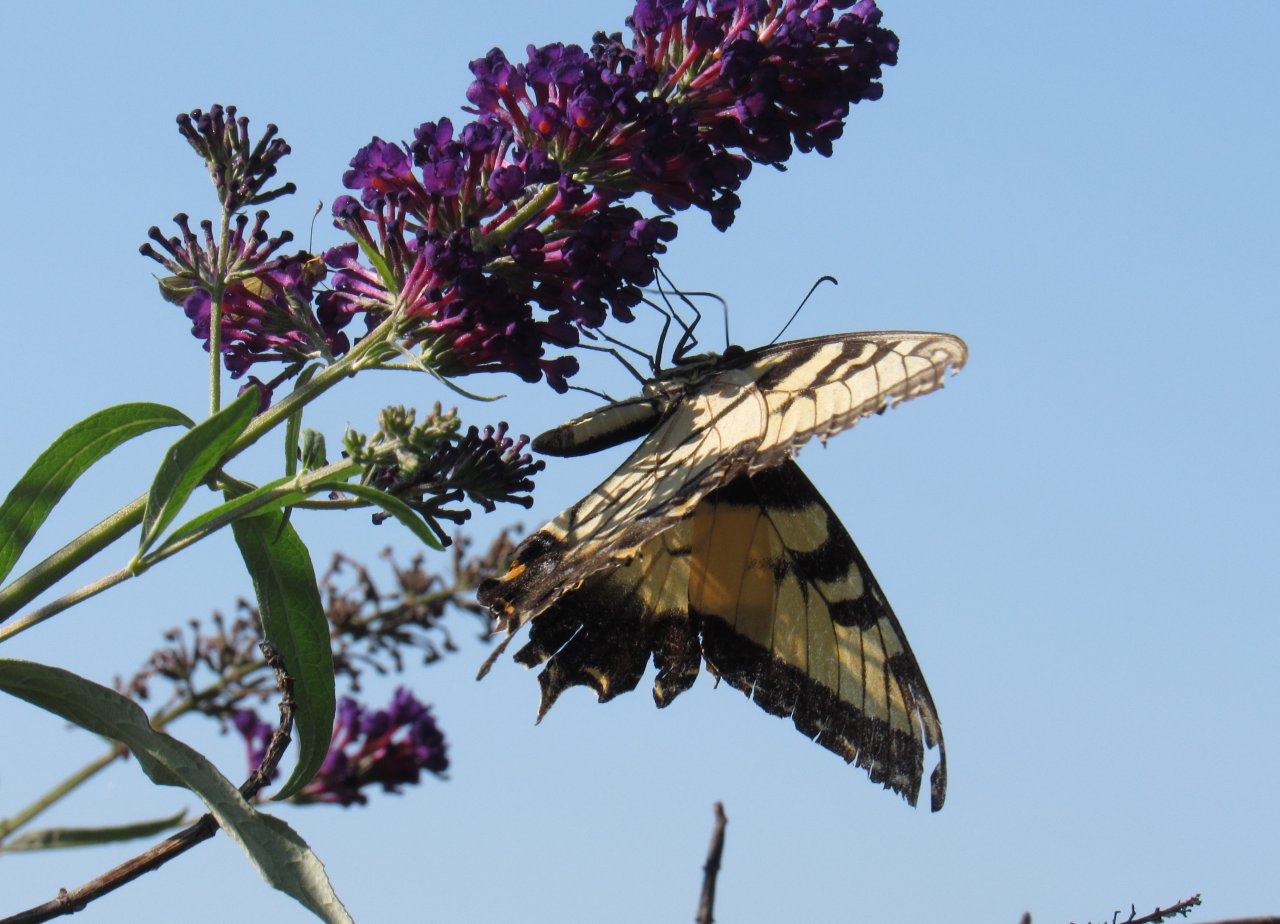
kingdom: Animalia
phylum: Arthropoda
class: Insecta
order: Lepidoptera
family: Papilionidae
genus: Papilio
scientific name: Papilio
